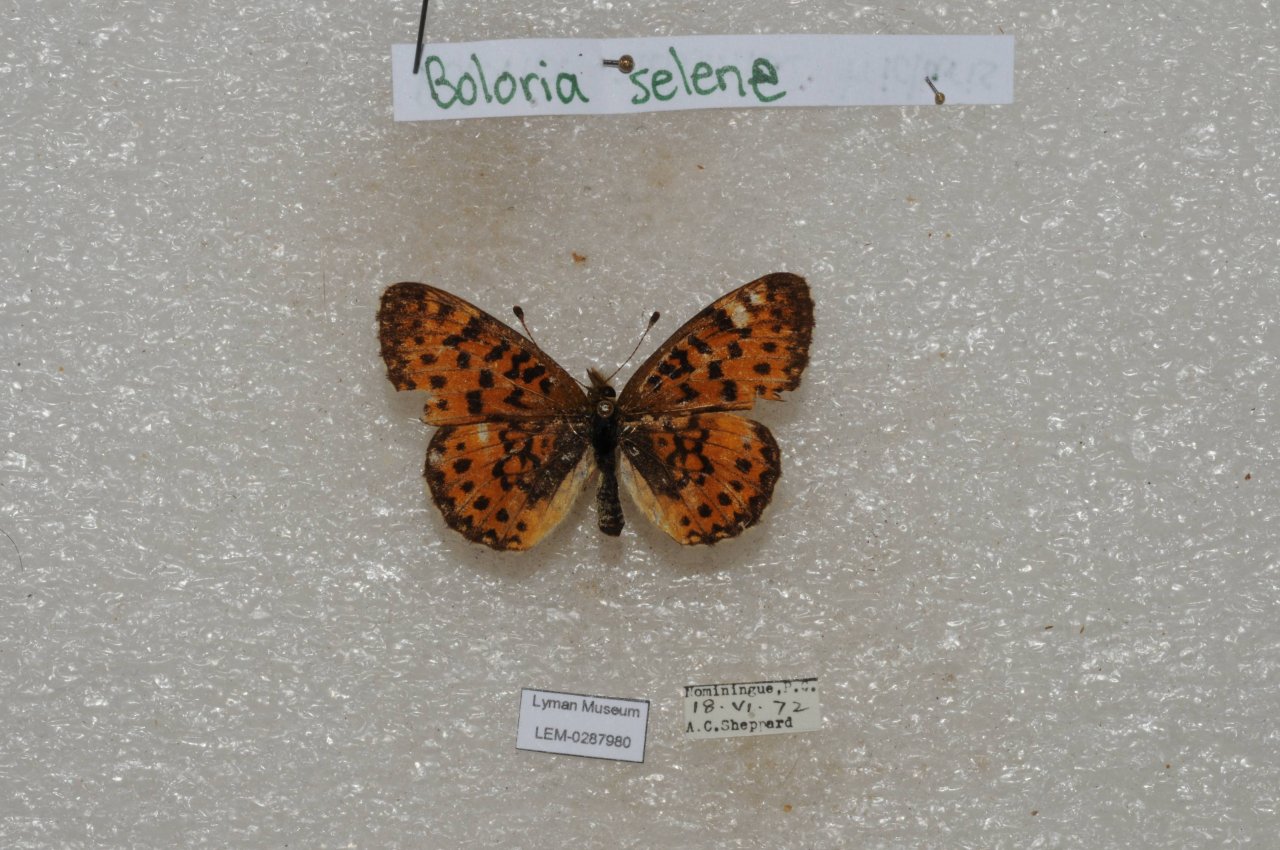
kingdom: Animalia
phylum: Arthropoda
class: Insecta
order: Lepidoptera
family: Nymphalidae
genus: Boloria
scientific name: Boloria selene
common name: Silver-bordered Fritillary
